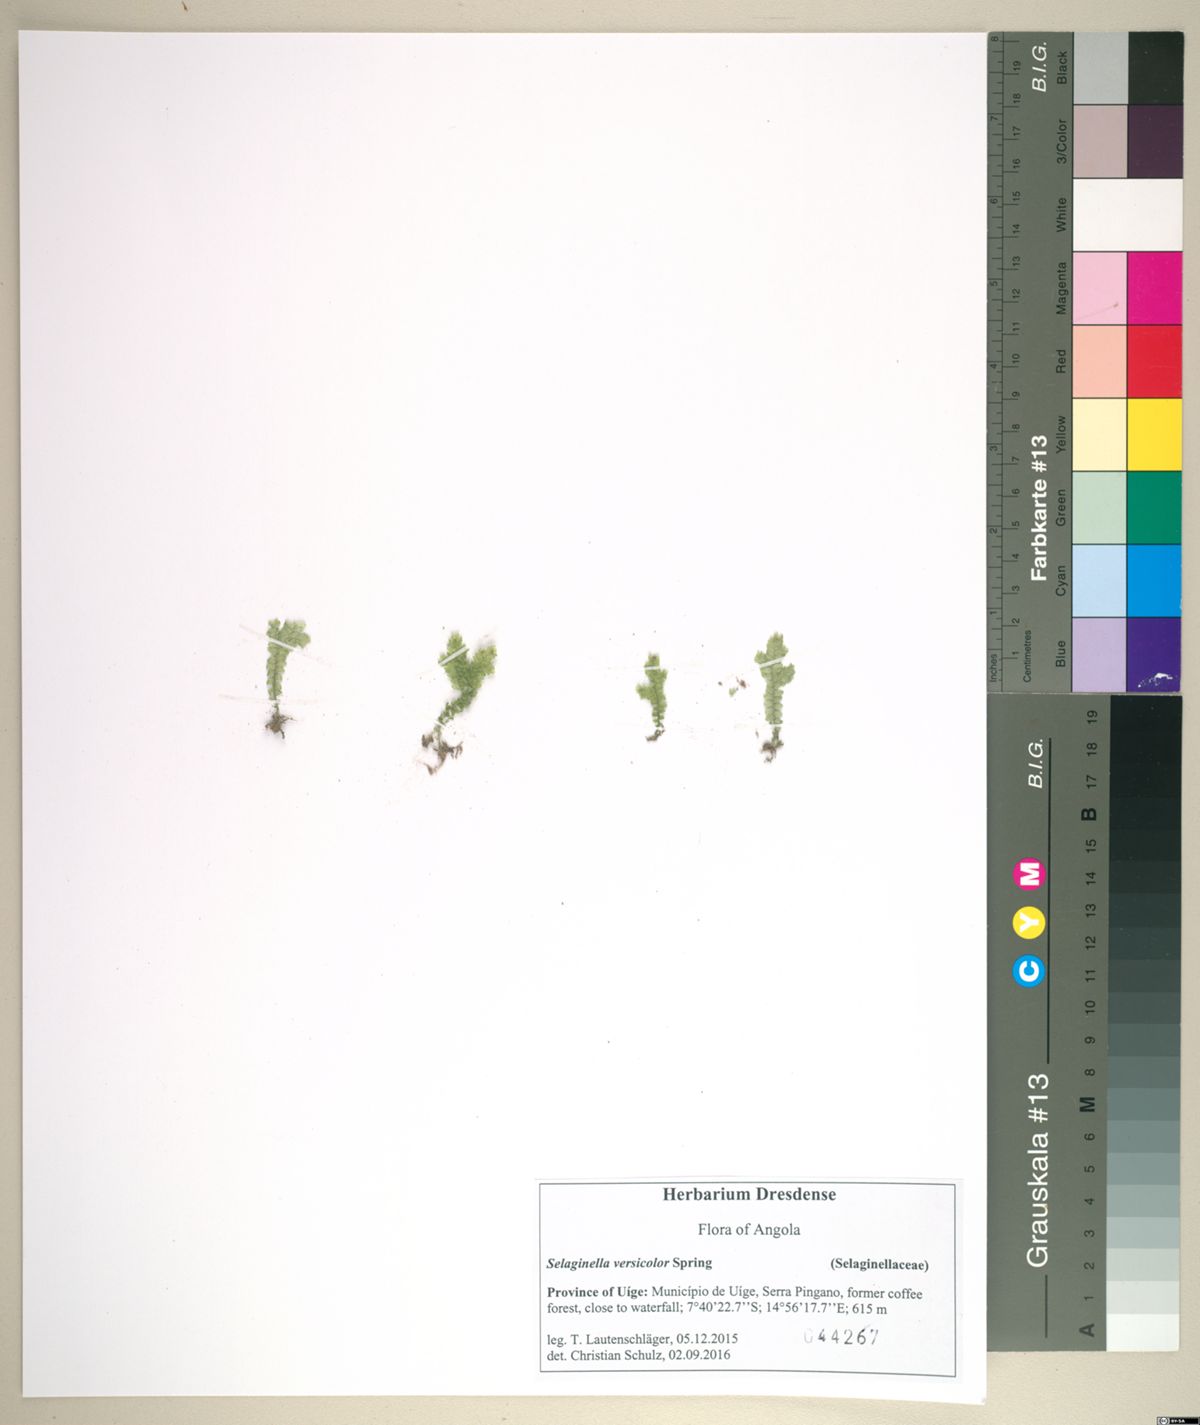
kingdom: Plantae
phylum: Tracheophyta
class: Lycopodiopsida
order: Selaginellales
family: Selaginellaceae
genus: Selaginella
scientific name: Selaginella versicolor
